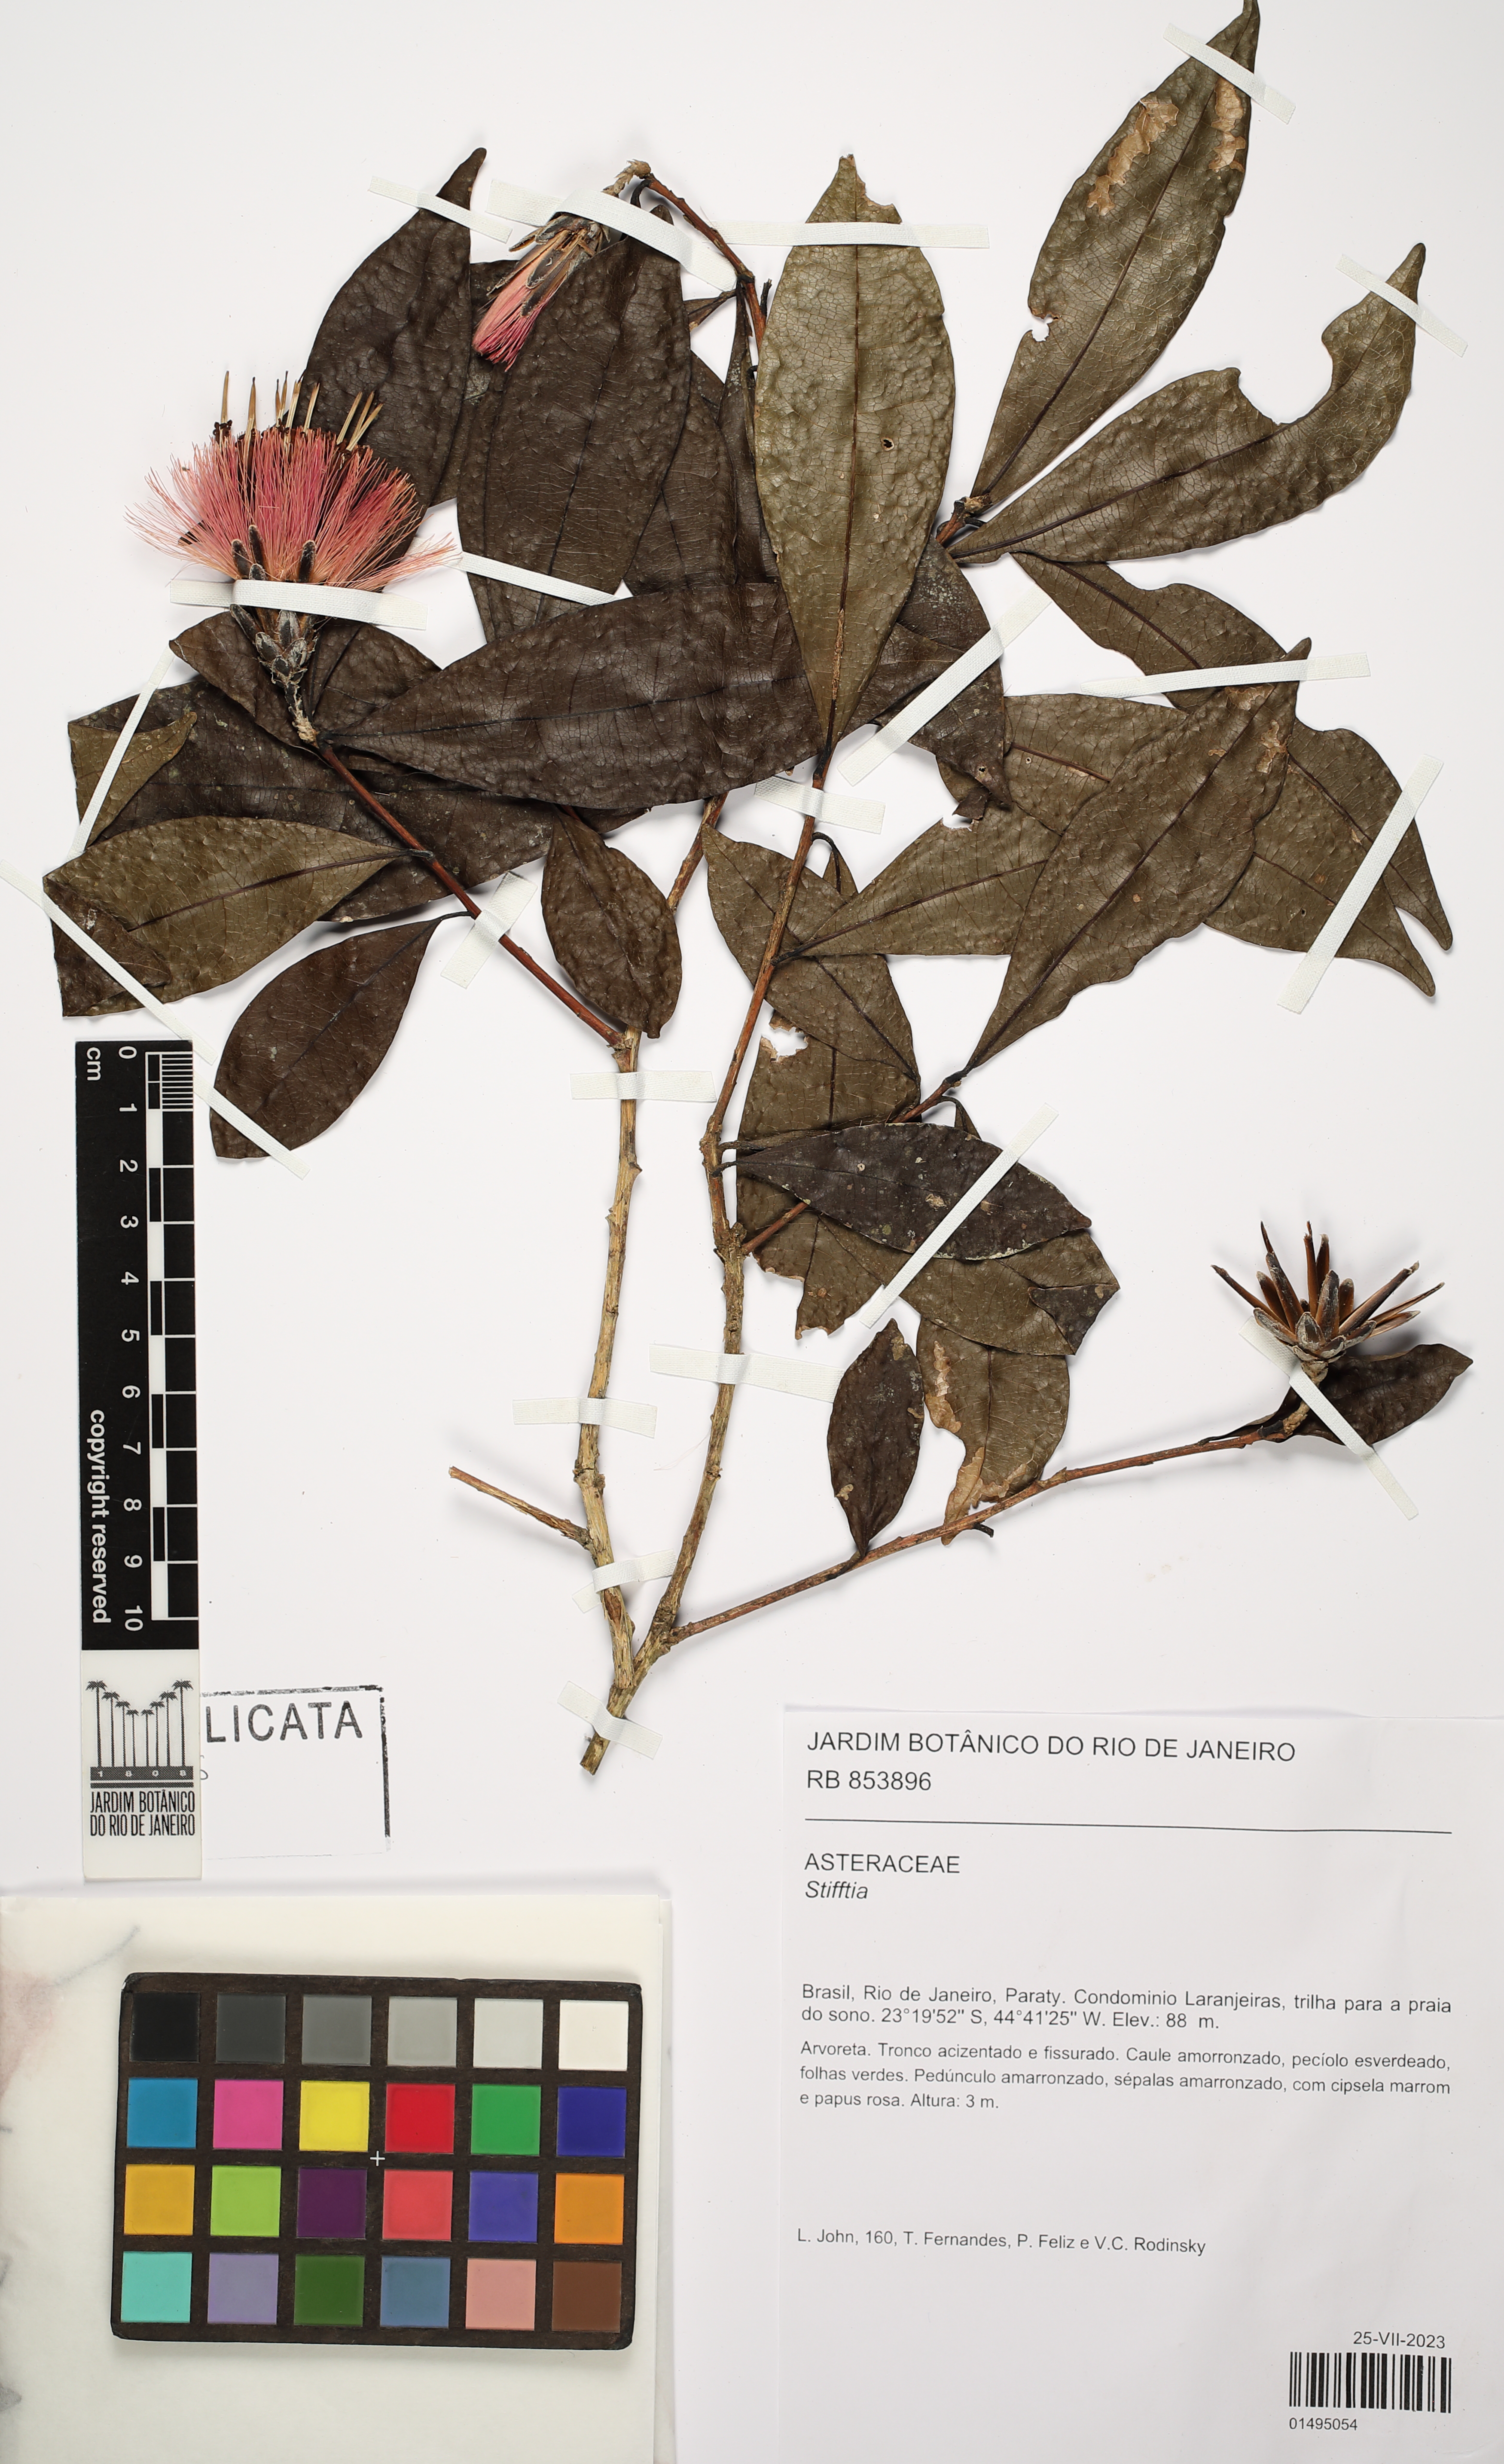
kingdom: Plantae
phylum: Tracheophyta
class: Magnoliopsida
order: Asterales
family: Asteraceae
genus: Stifftia
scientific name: Stifftia
